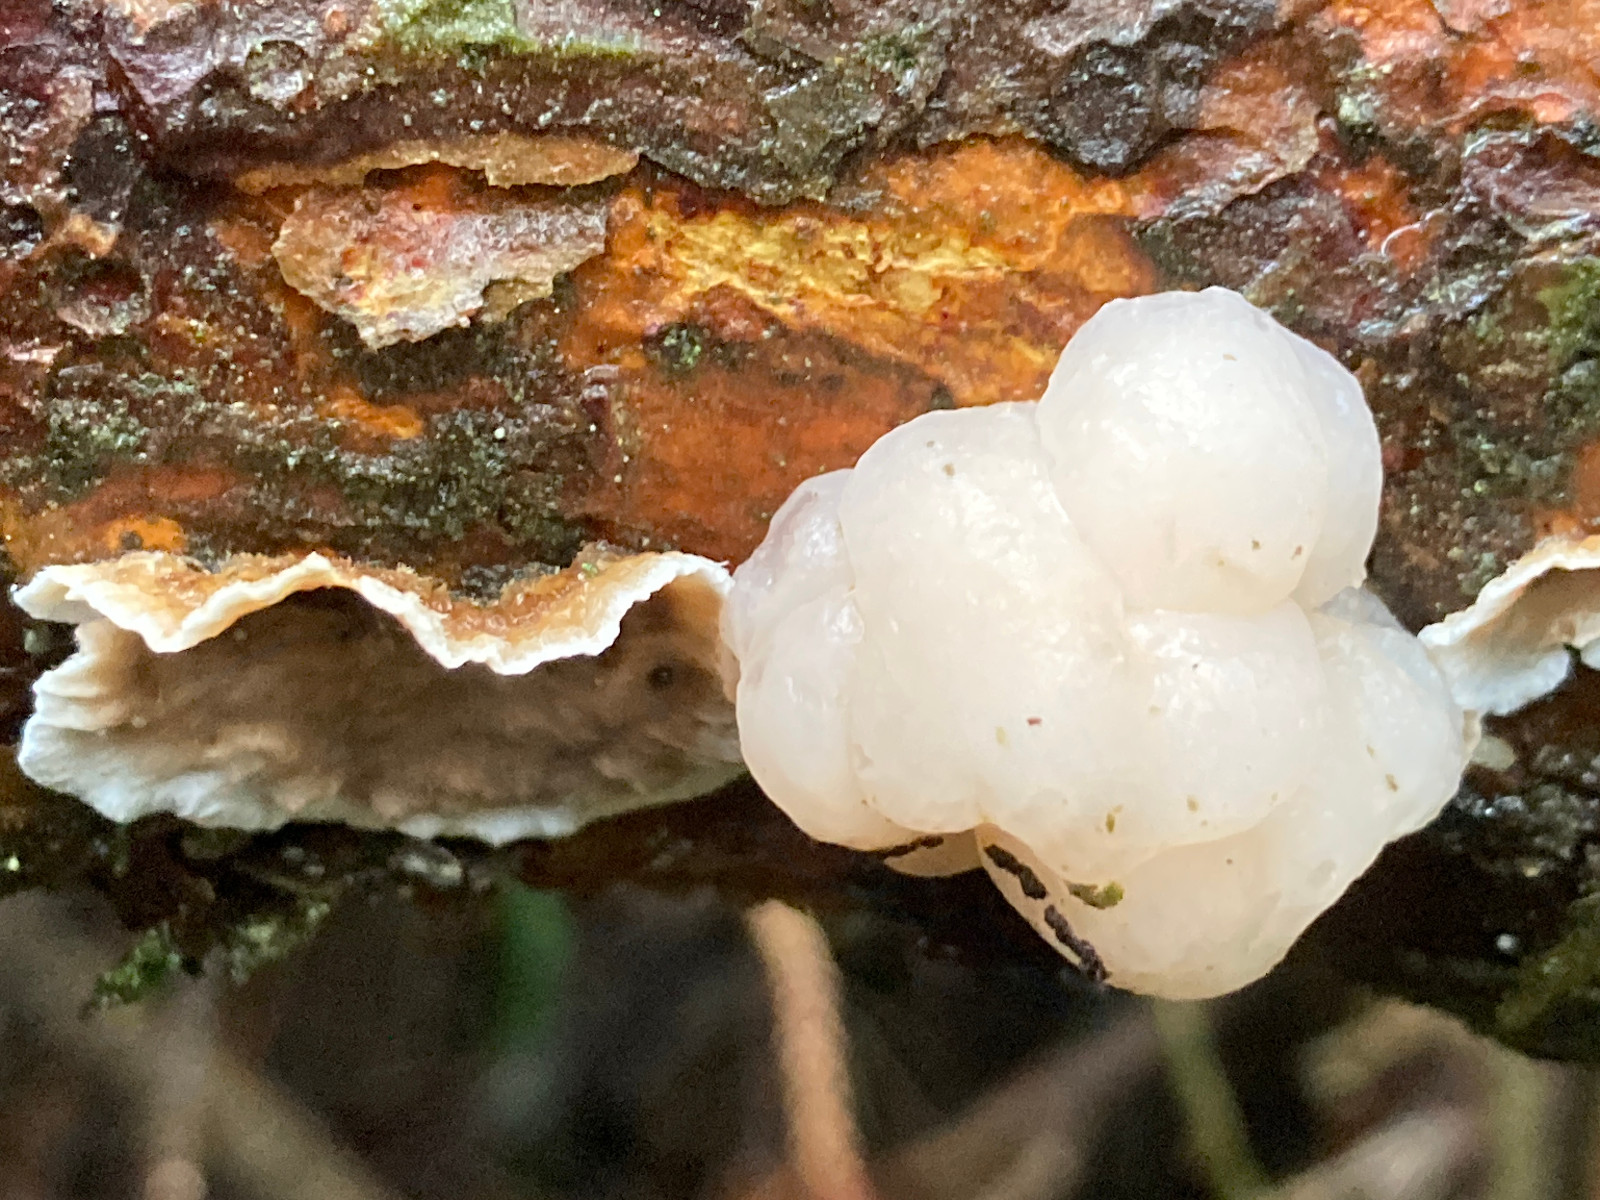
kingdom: Fungi
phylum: Basidiomycota
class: Agaricomycetes
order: Russulales
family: Stereaceae
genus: Stereum
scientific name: Stereum sanguinolentum
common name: blødende lædersvamp
